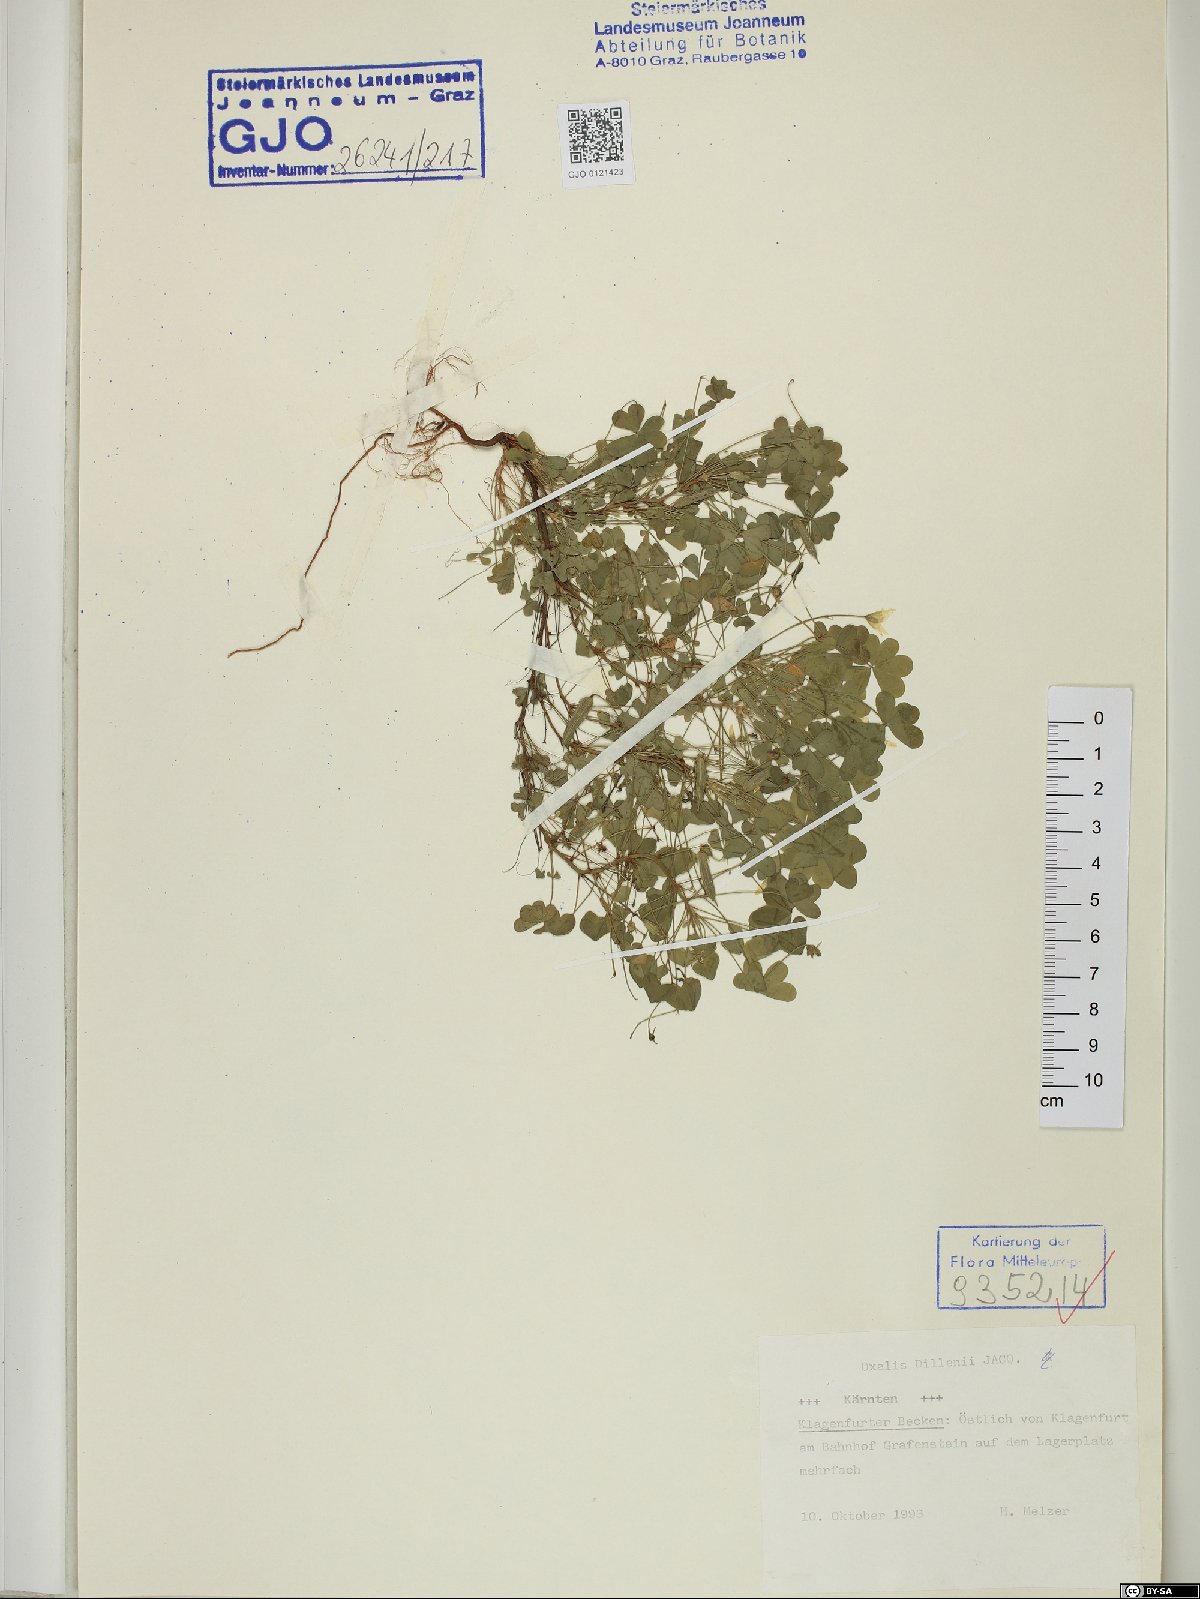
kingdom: Plantae
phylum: Tracheophyta
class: Magnoliopsida
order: Oxalidales
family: Oxalidaceae
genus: Oxalis
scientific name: Oxalis dillenii
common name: Sussex yellow-sorrel
